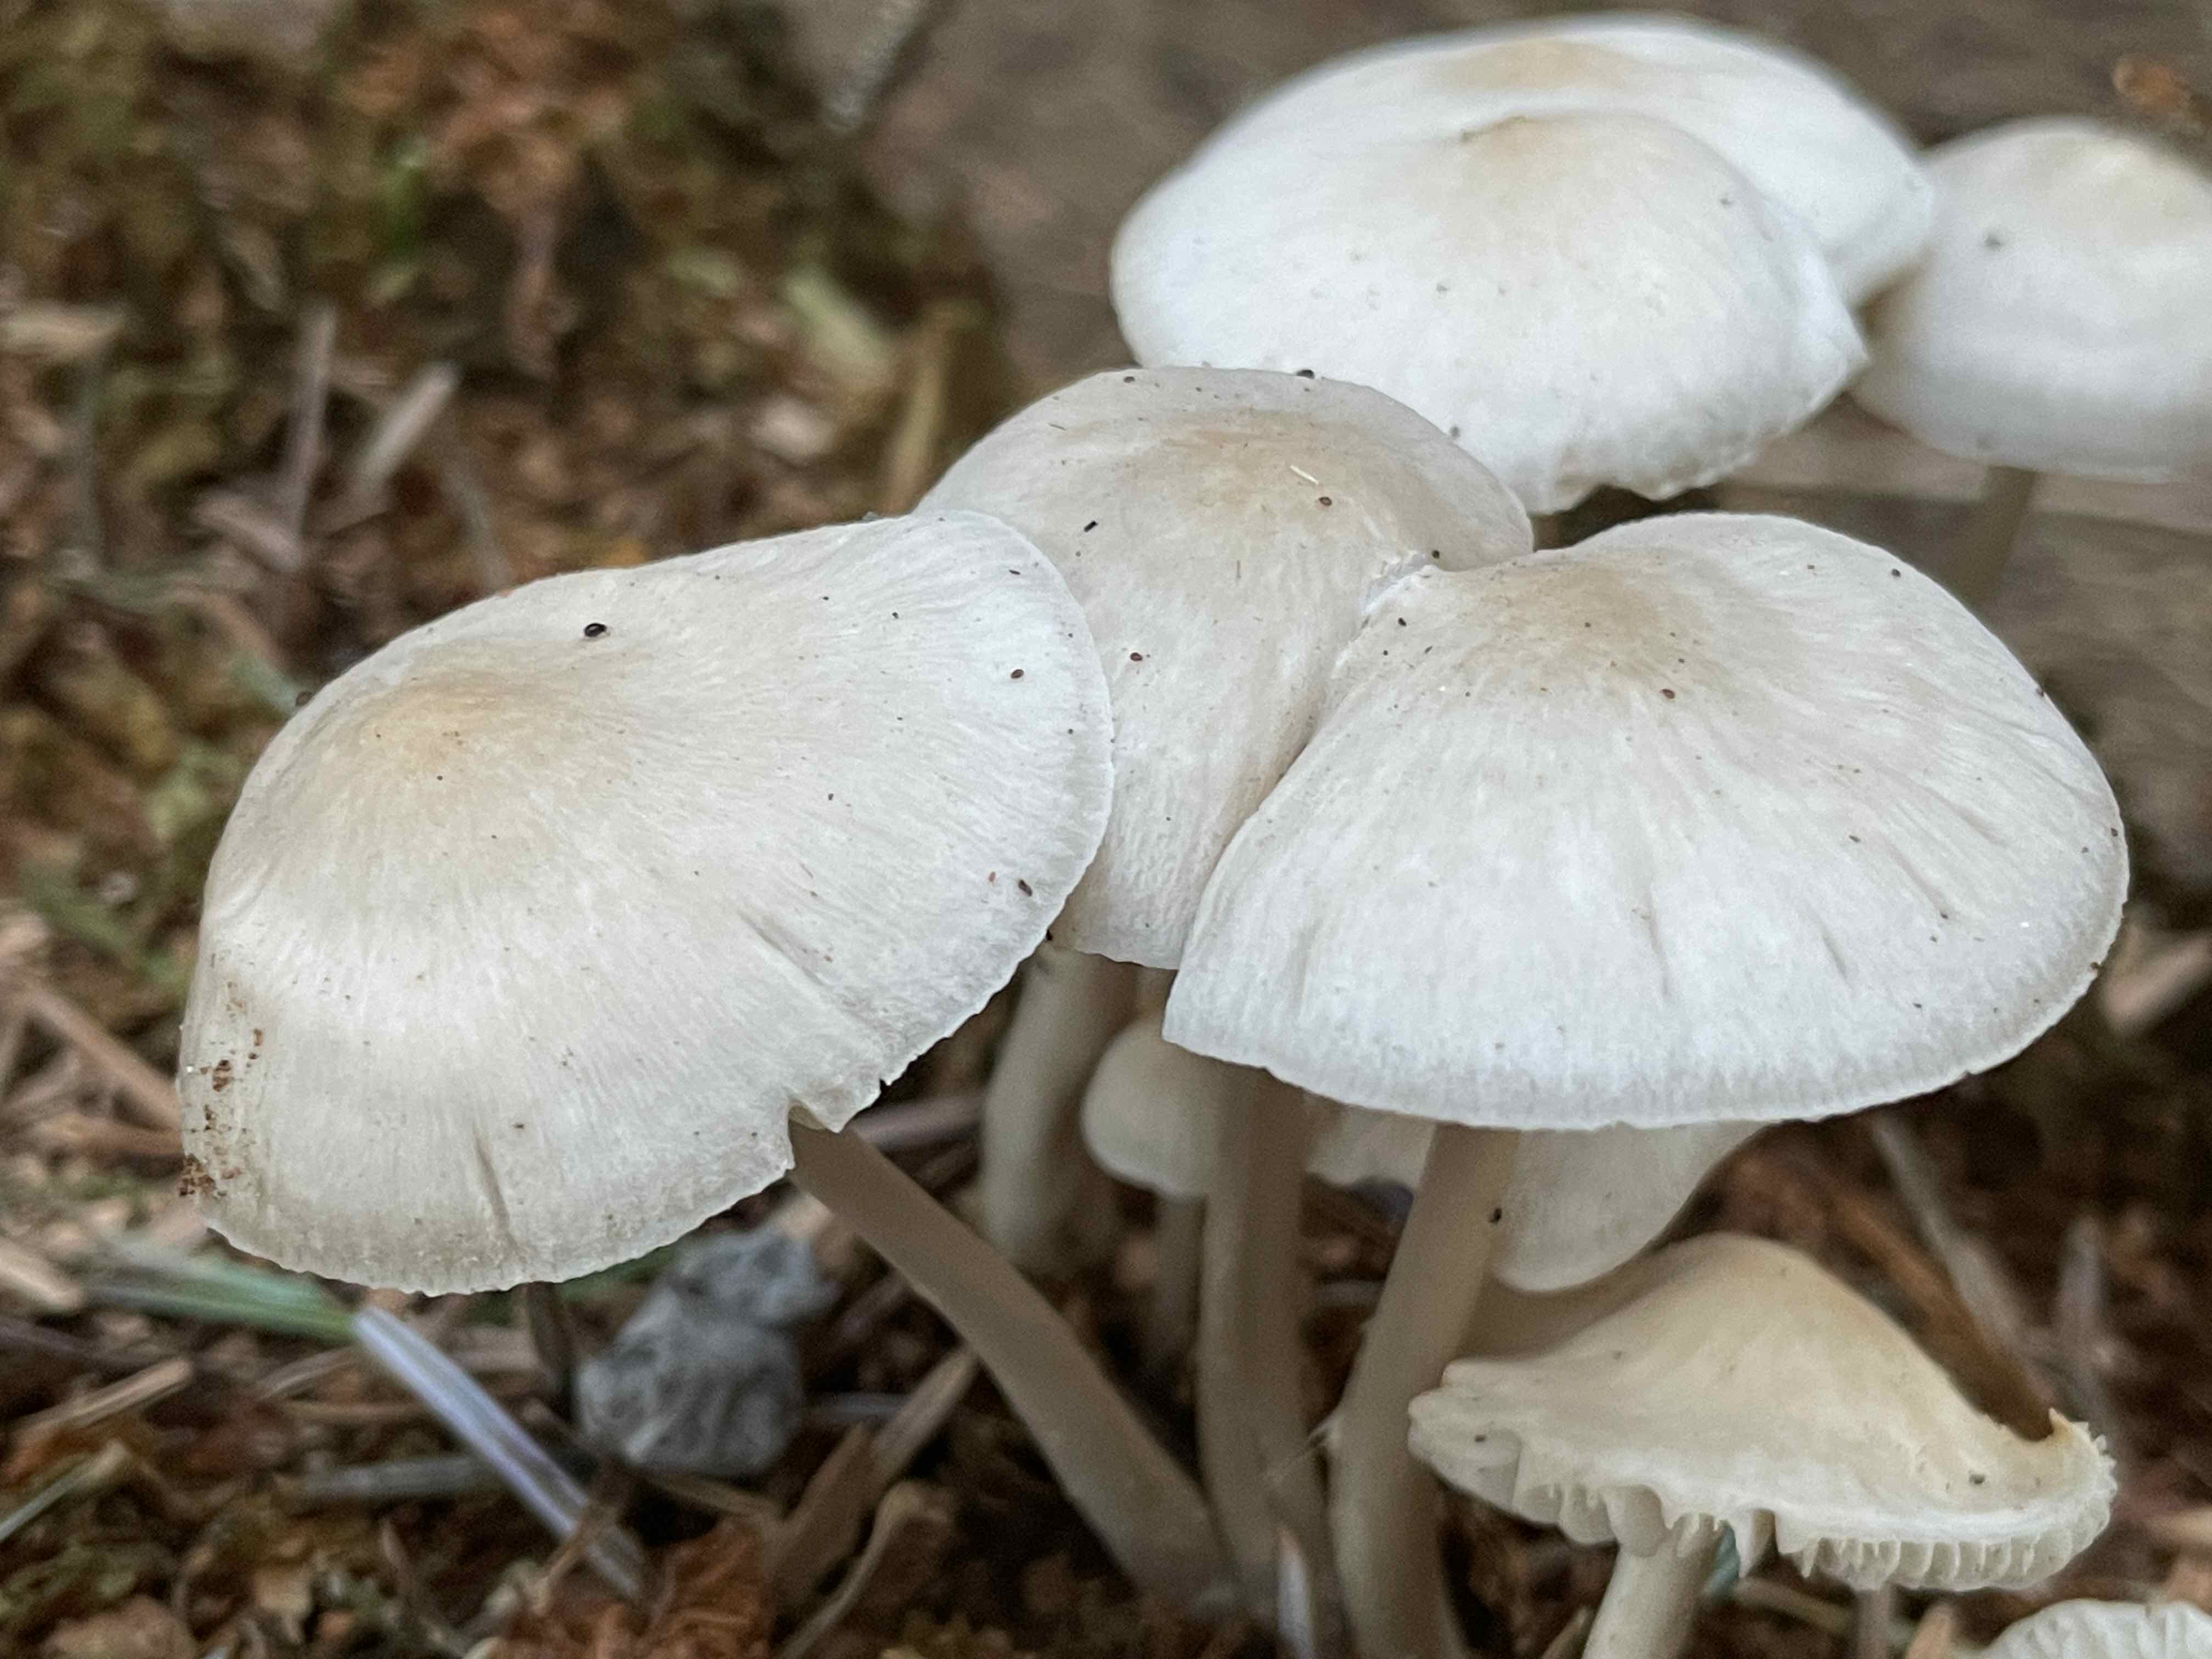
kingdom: Fungi
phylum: Basidiomycota
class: Agaricomycetes
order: Agaricales
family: Mycenaceae
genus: Mycena
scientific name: Mycena galericulata
